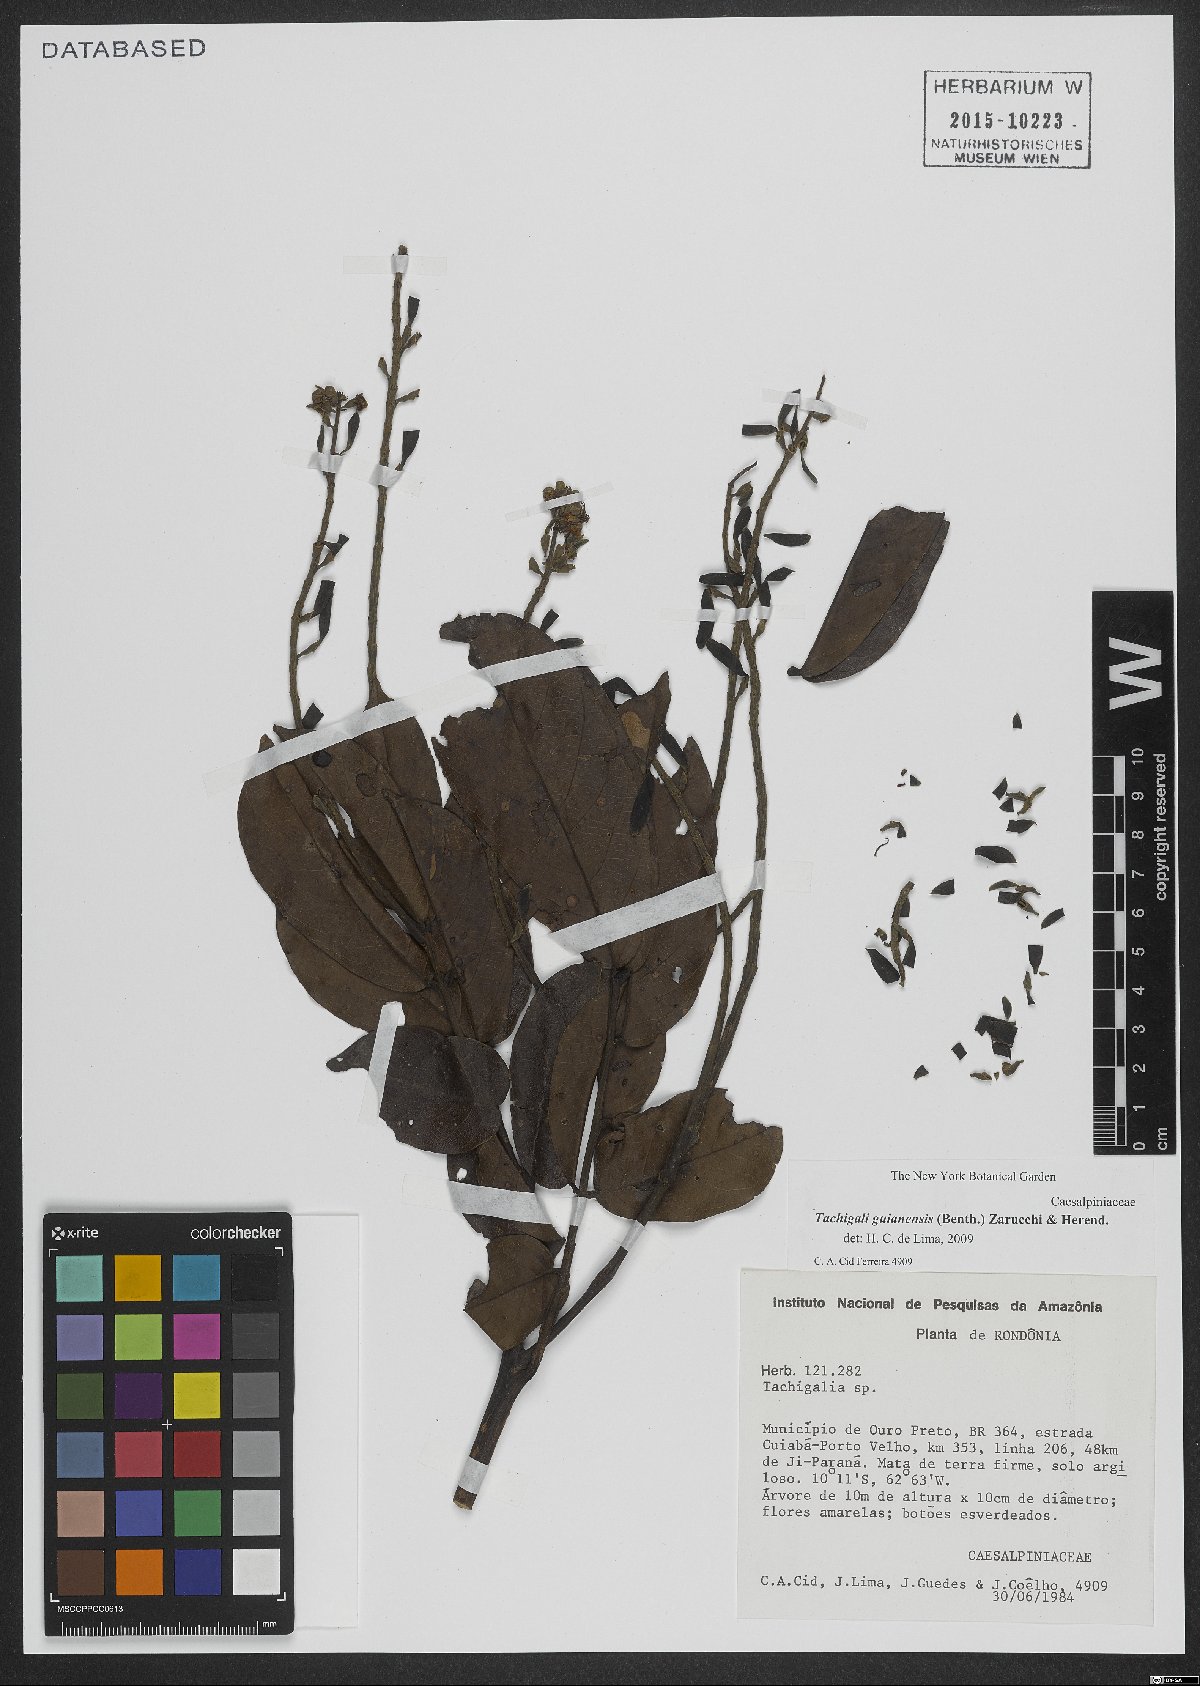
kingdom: Plantae
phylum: Tracheophyta
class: Magnoliopsida
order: Fabales
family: Fabaceae
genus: Tachigali
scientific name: Tachigali guianensis
